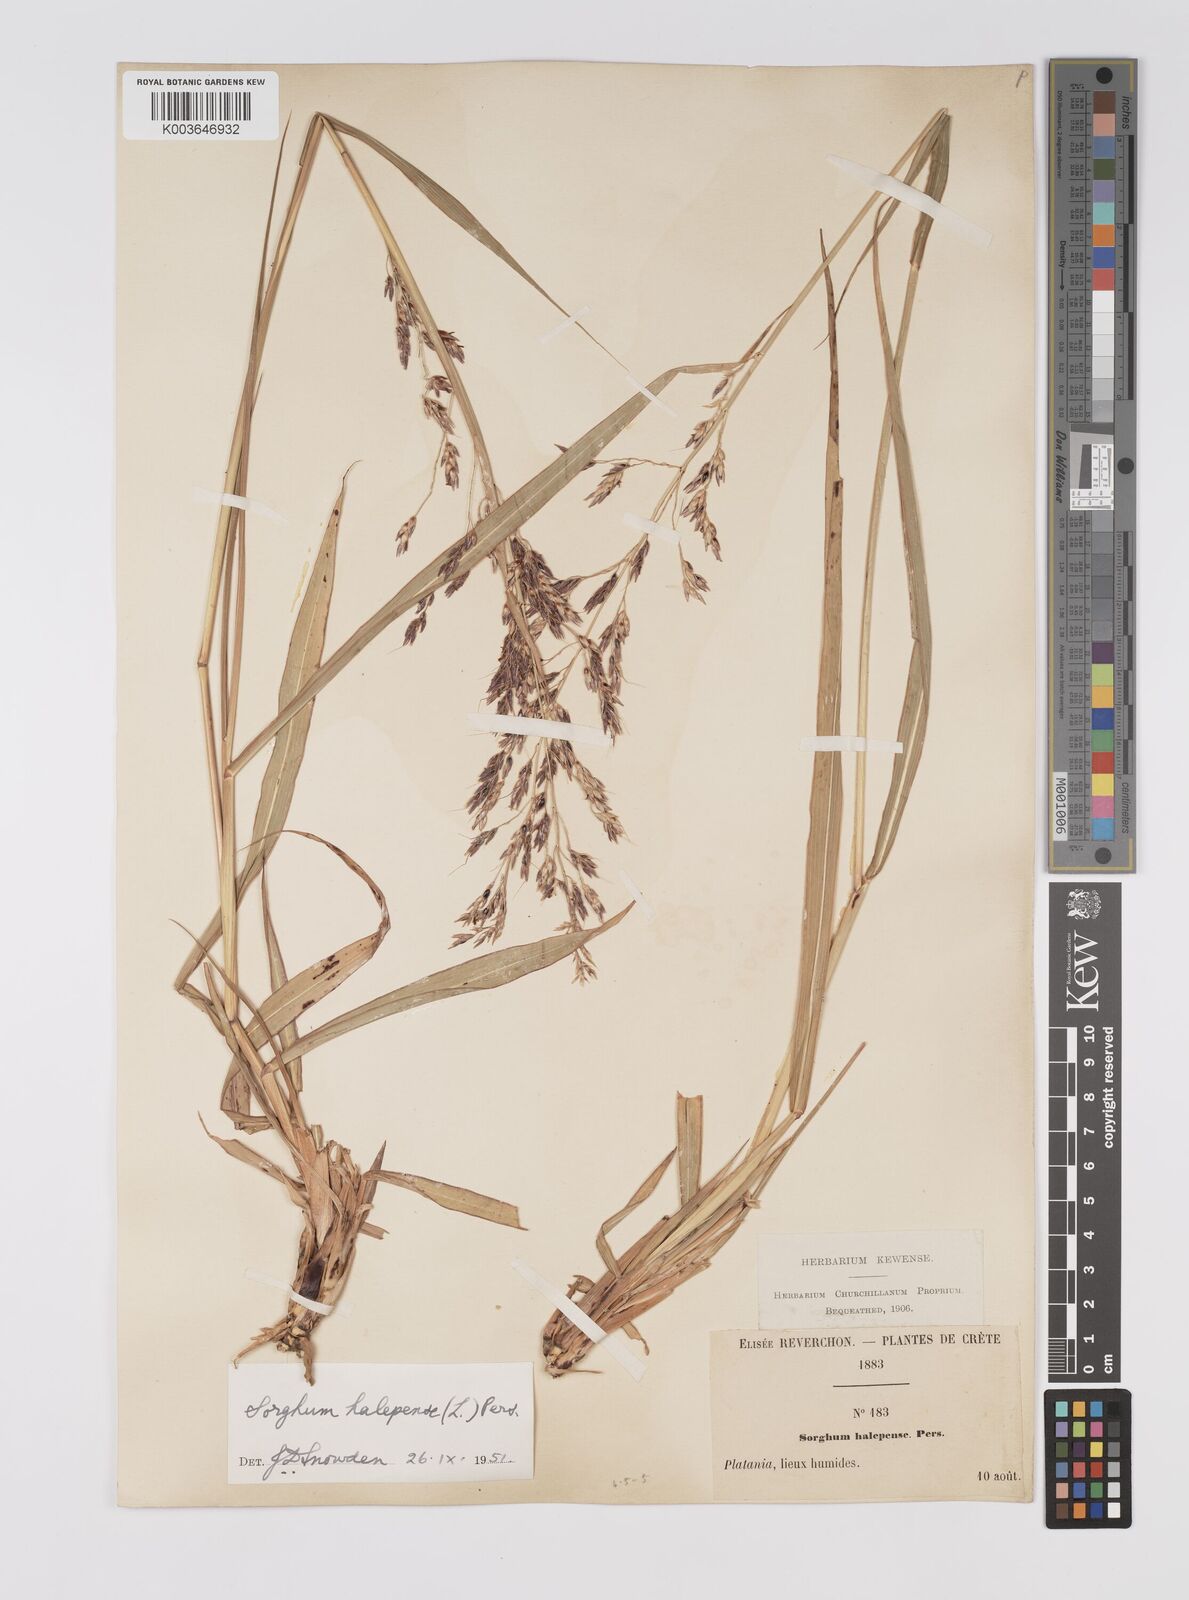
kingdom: Plantae
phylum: Tracheophyta
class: Liliopsida
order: Poales
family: Poaceae
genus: Sorghum
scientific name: Sorghum halepense
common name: Johnson-grass
